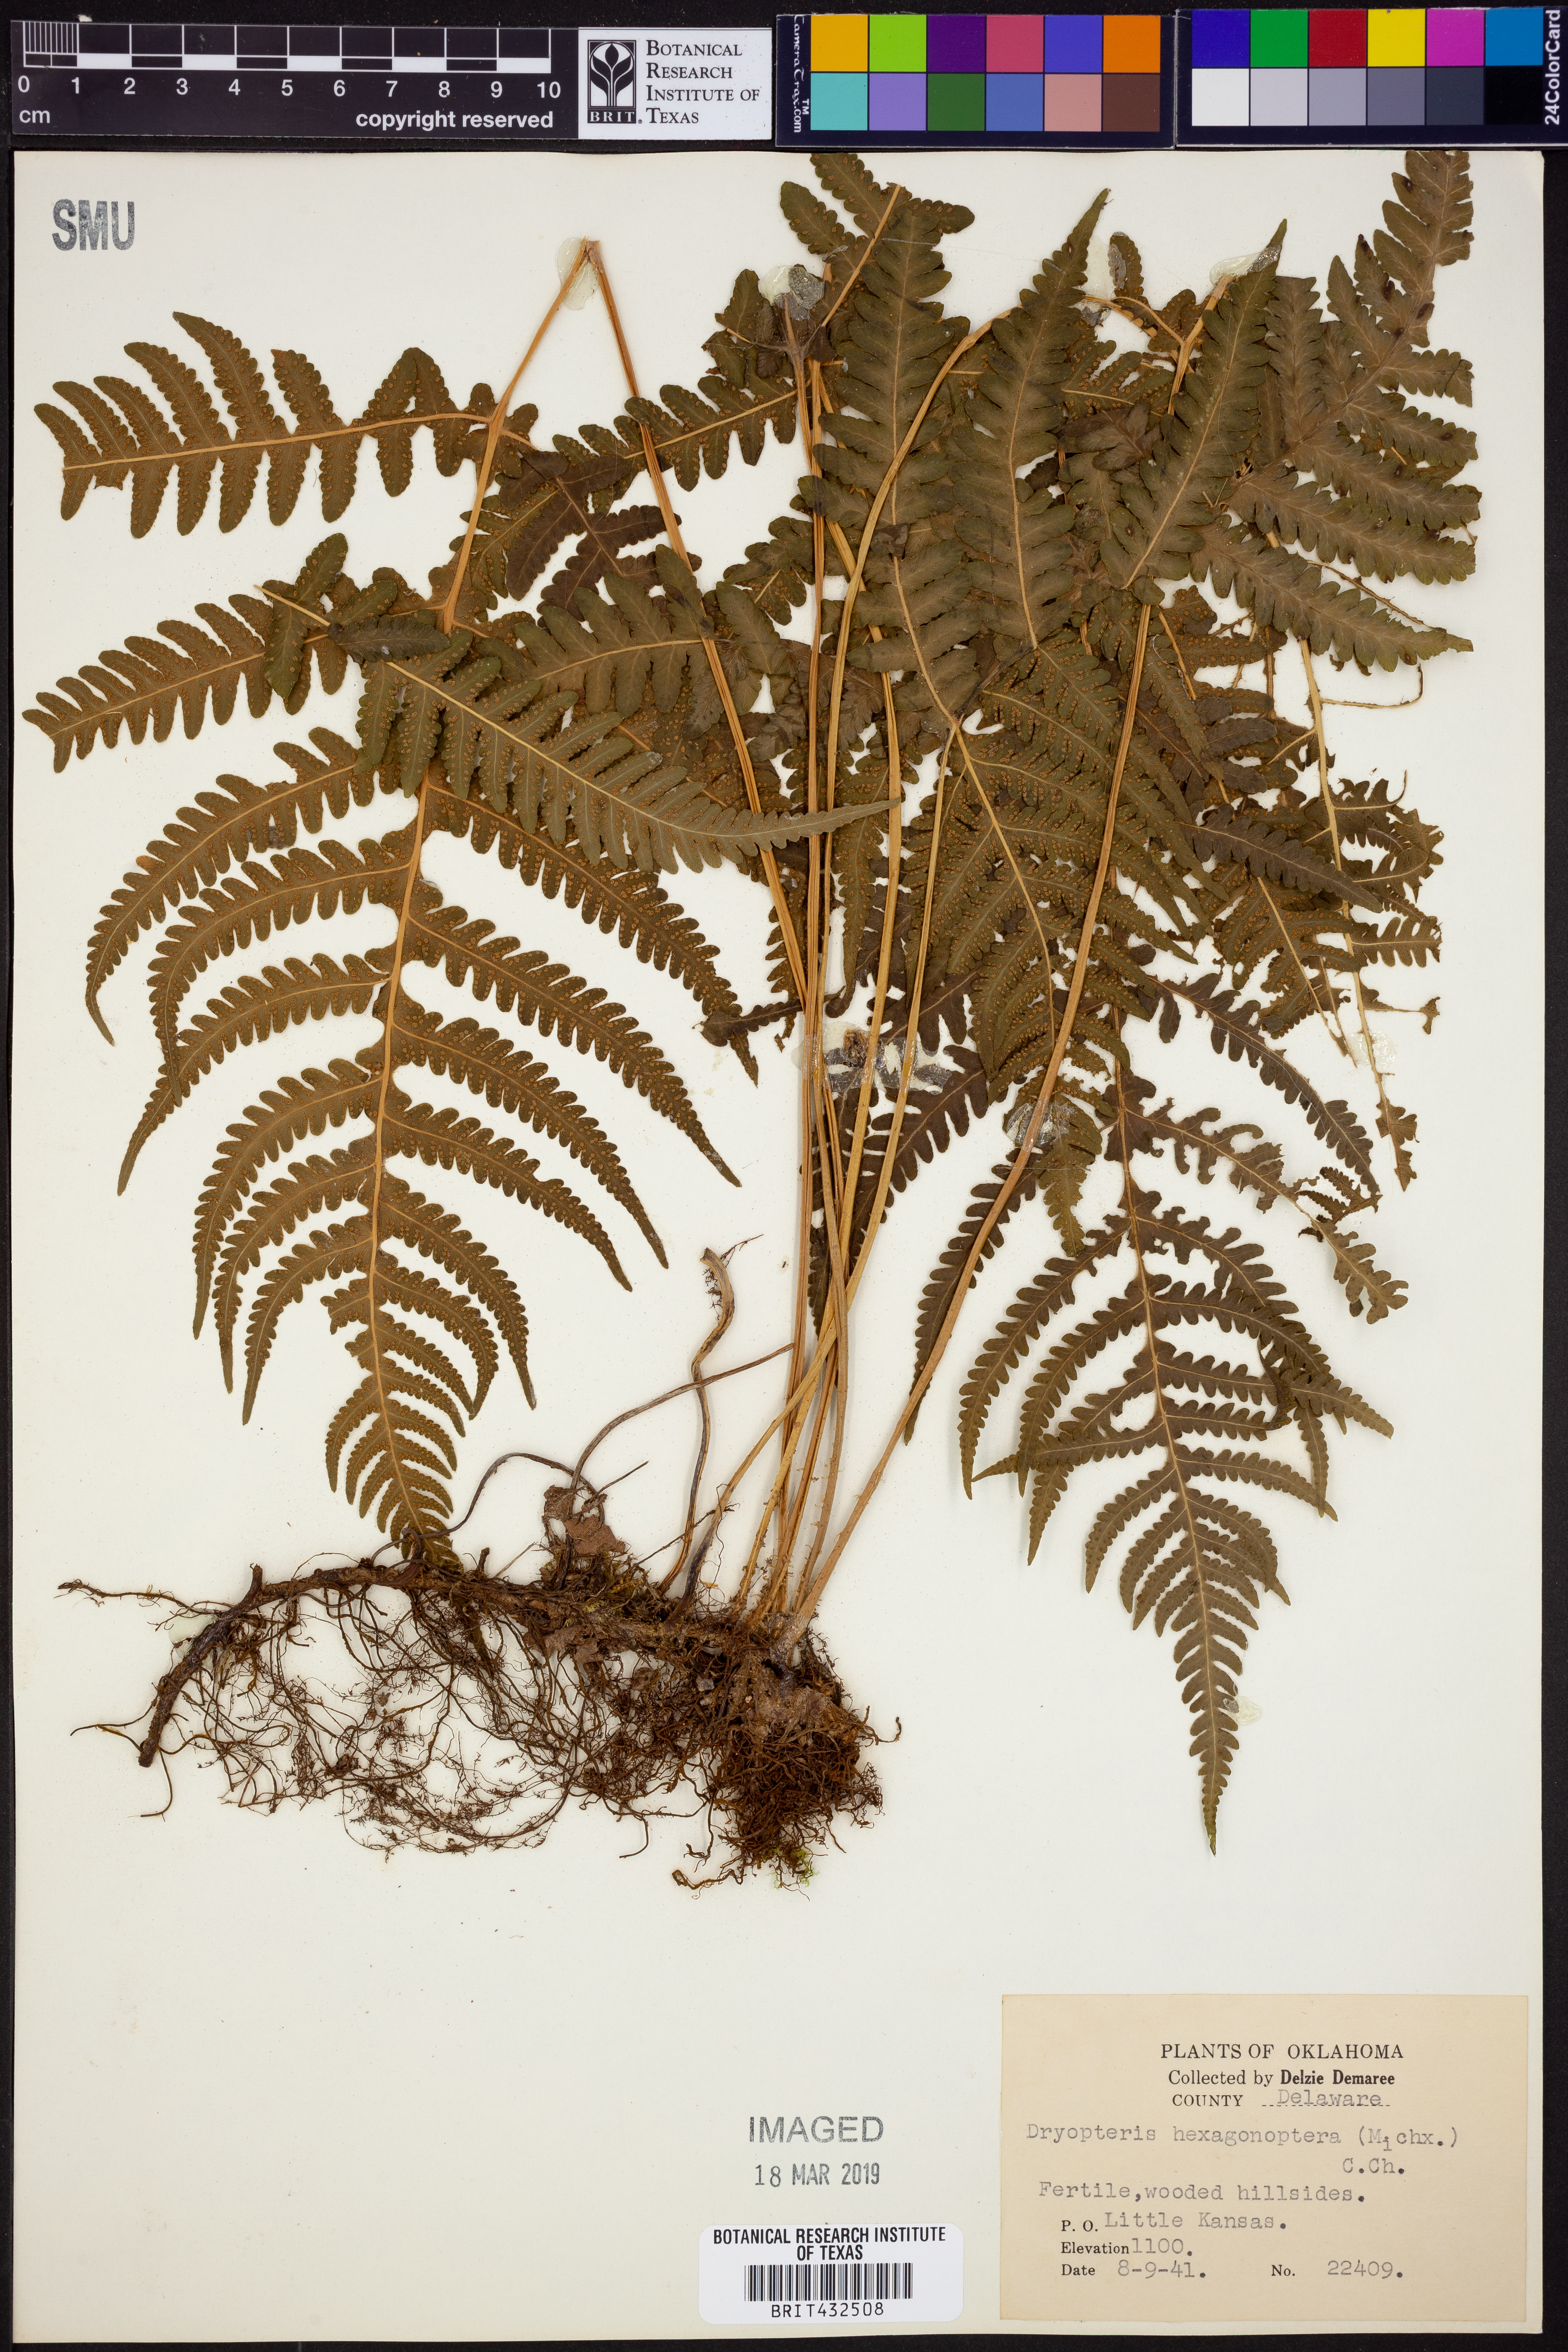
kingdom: Plantae
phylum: Tracheophyta
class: Polypodiopsida
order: Polypodiales
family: Dryopteridaceae
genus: Dryopteris
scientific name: Dryopteris hexagonaptera
